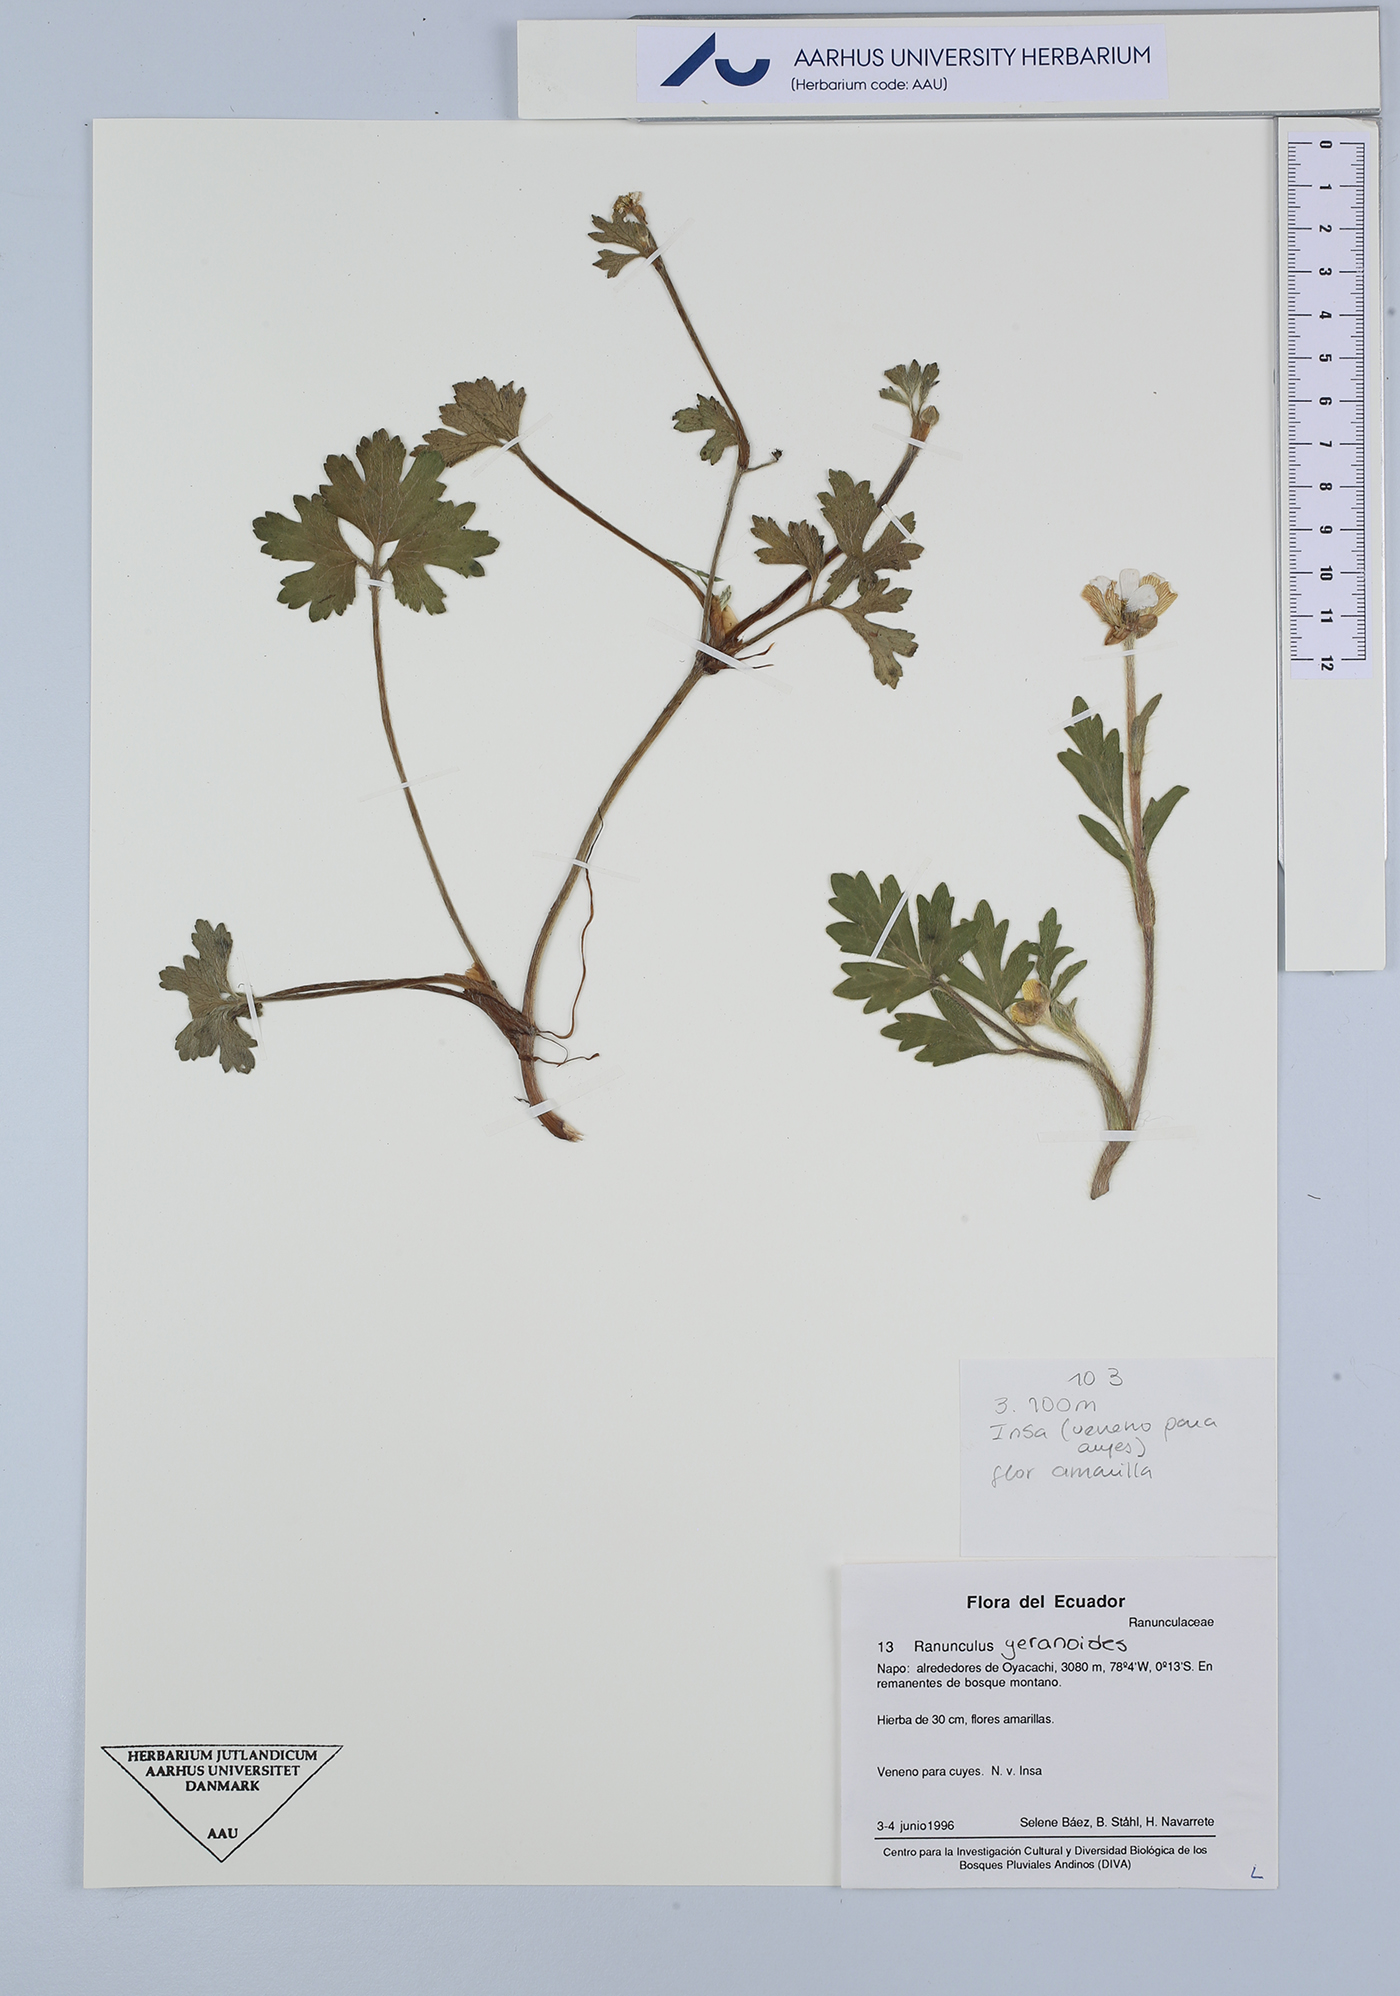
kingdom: Plantae
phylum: Tracheophyta
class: Magnoliopsida
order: Ranunculales
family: Ranunculaceae
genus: Ranunculus
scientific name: Ranunculus geranioides
